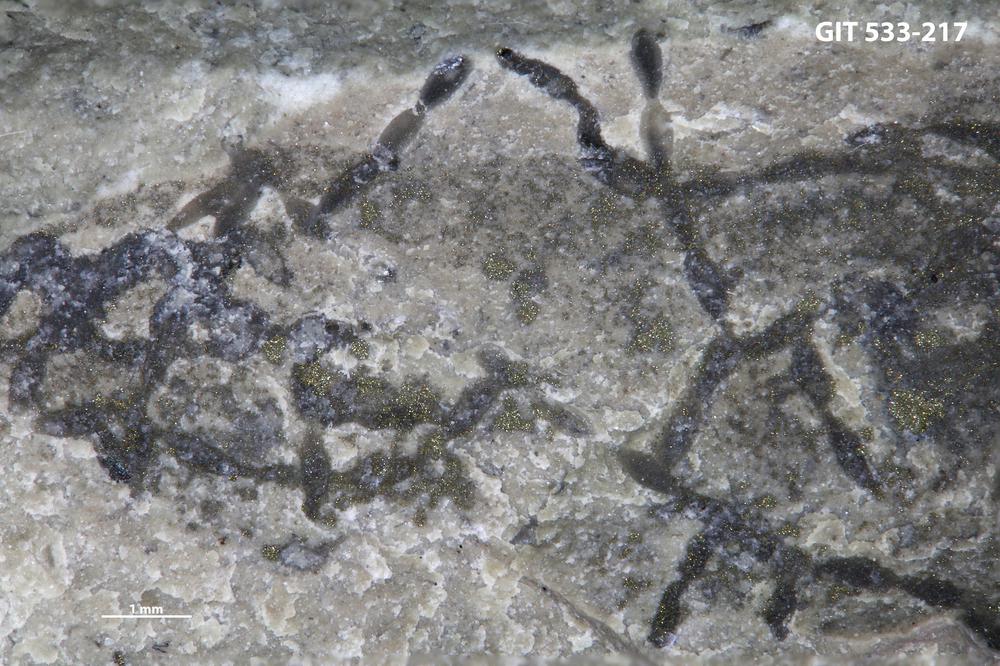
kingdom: Animalia
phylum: Bryozoa
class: Stenolaemata
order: Cyclostomatida
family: Corynotrypidae
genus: Corynotrypa
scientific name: Corynotrypa
